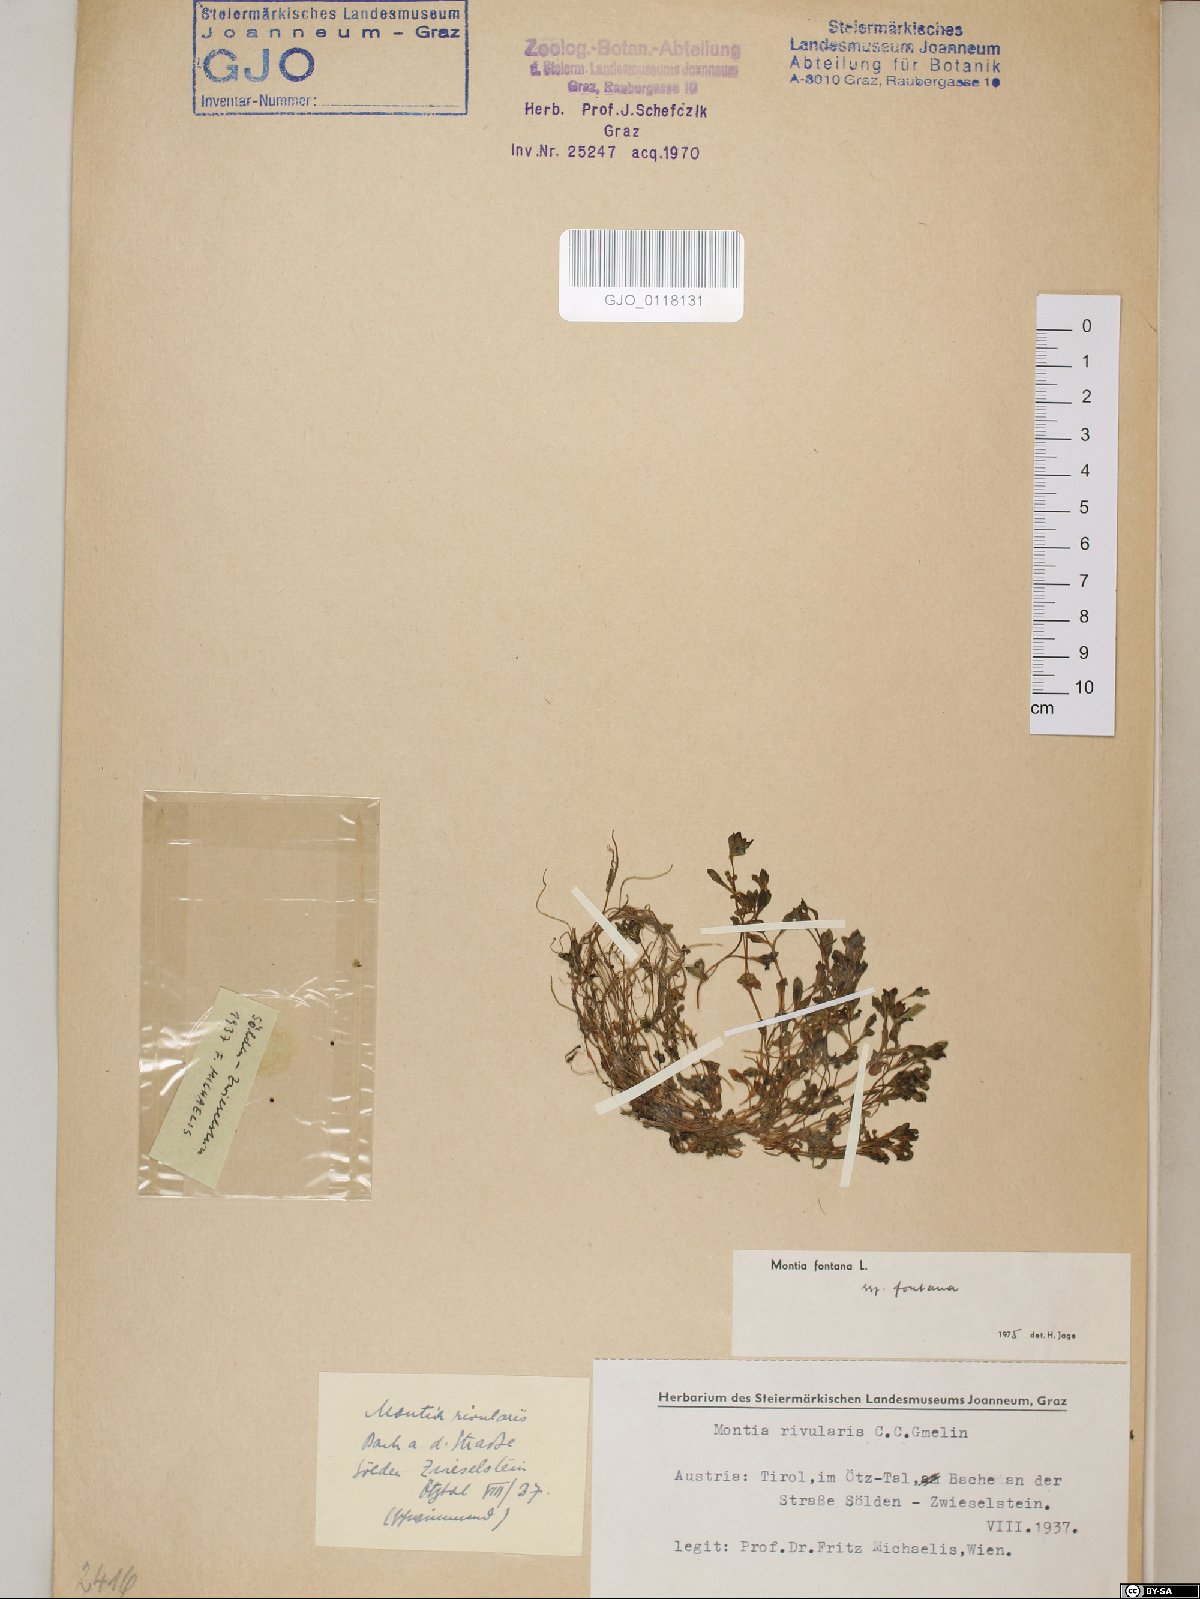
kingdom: Plantae
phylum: Tracheophyta
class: Magnoliopsida
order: Caryophyllales
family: Montiaceae
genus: Montia
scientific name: Montia fontana
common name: Blinks
